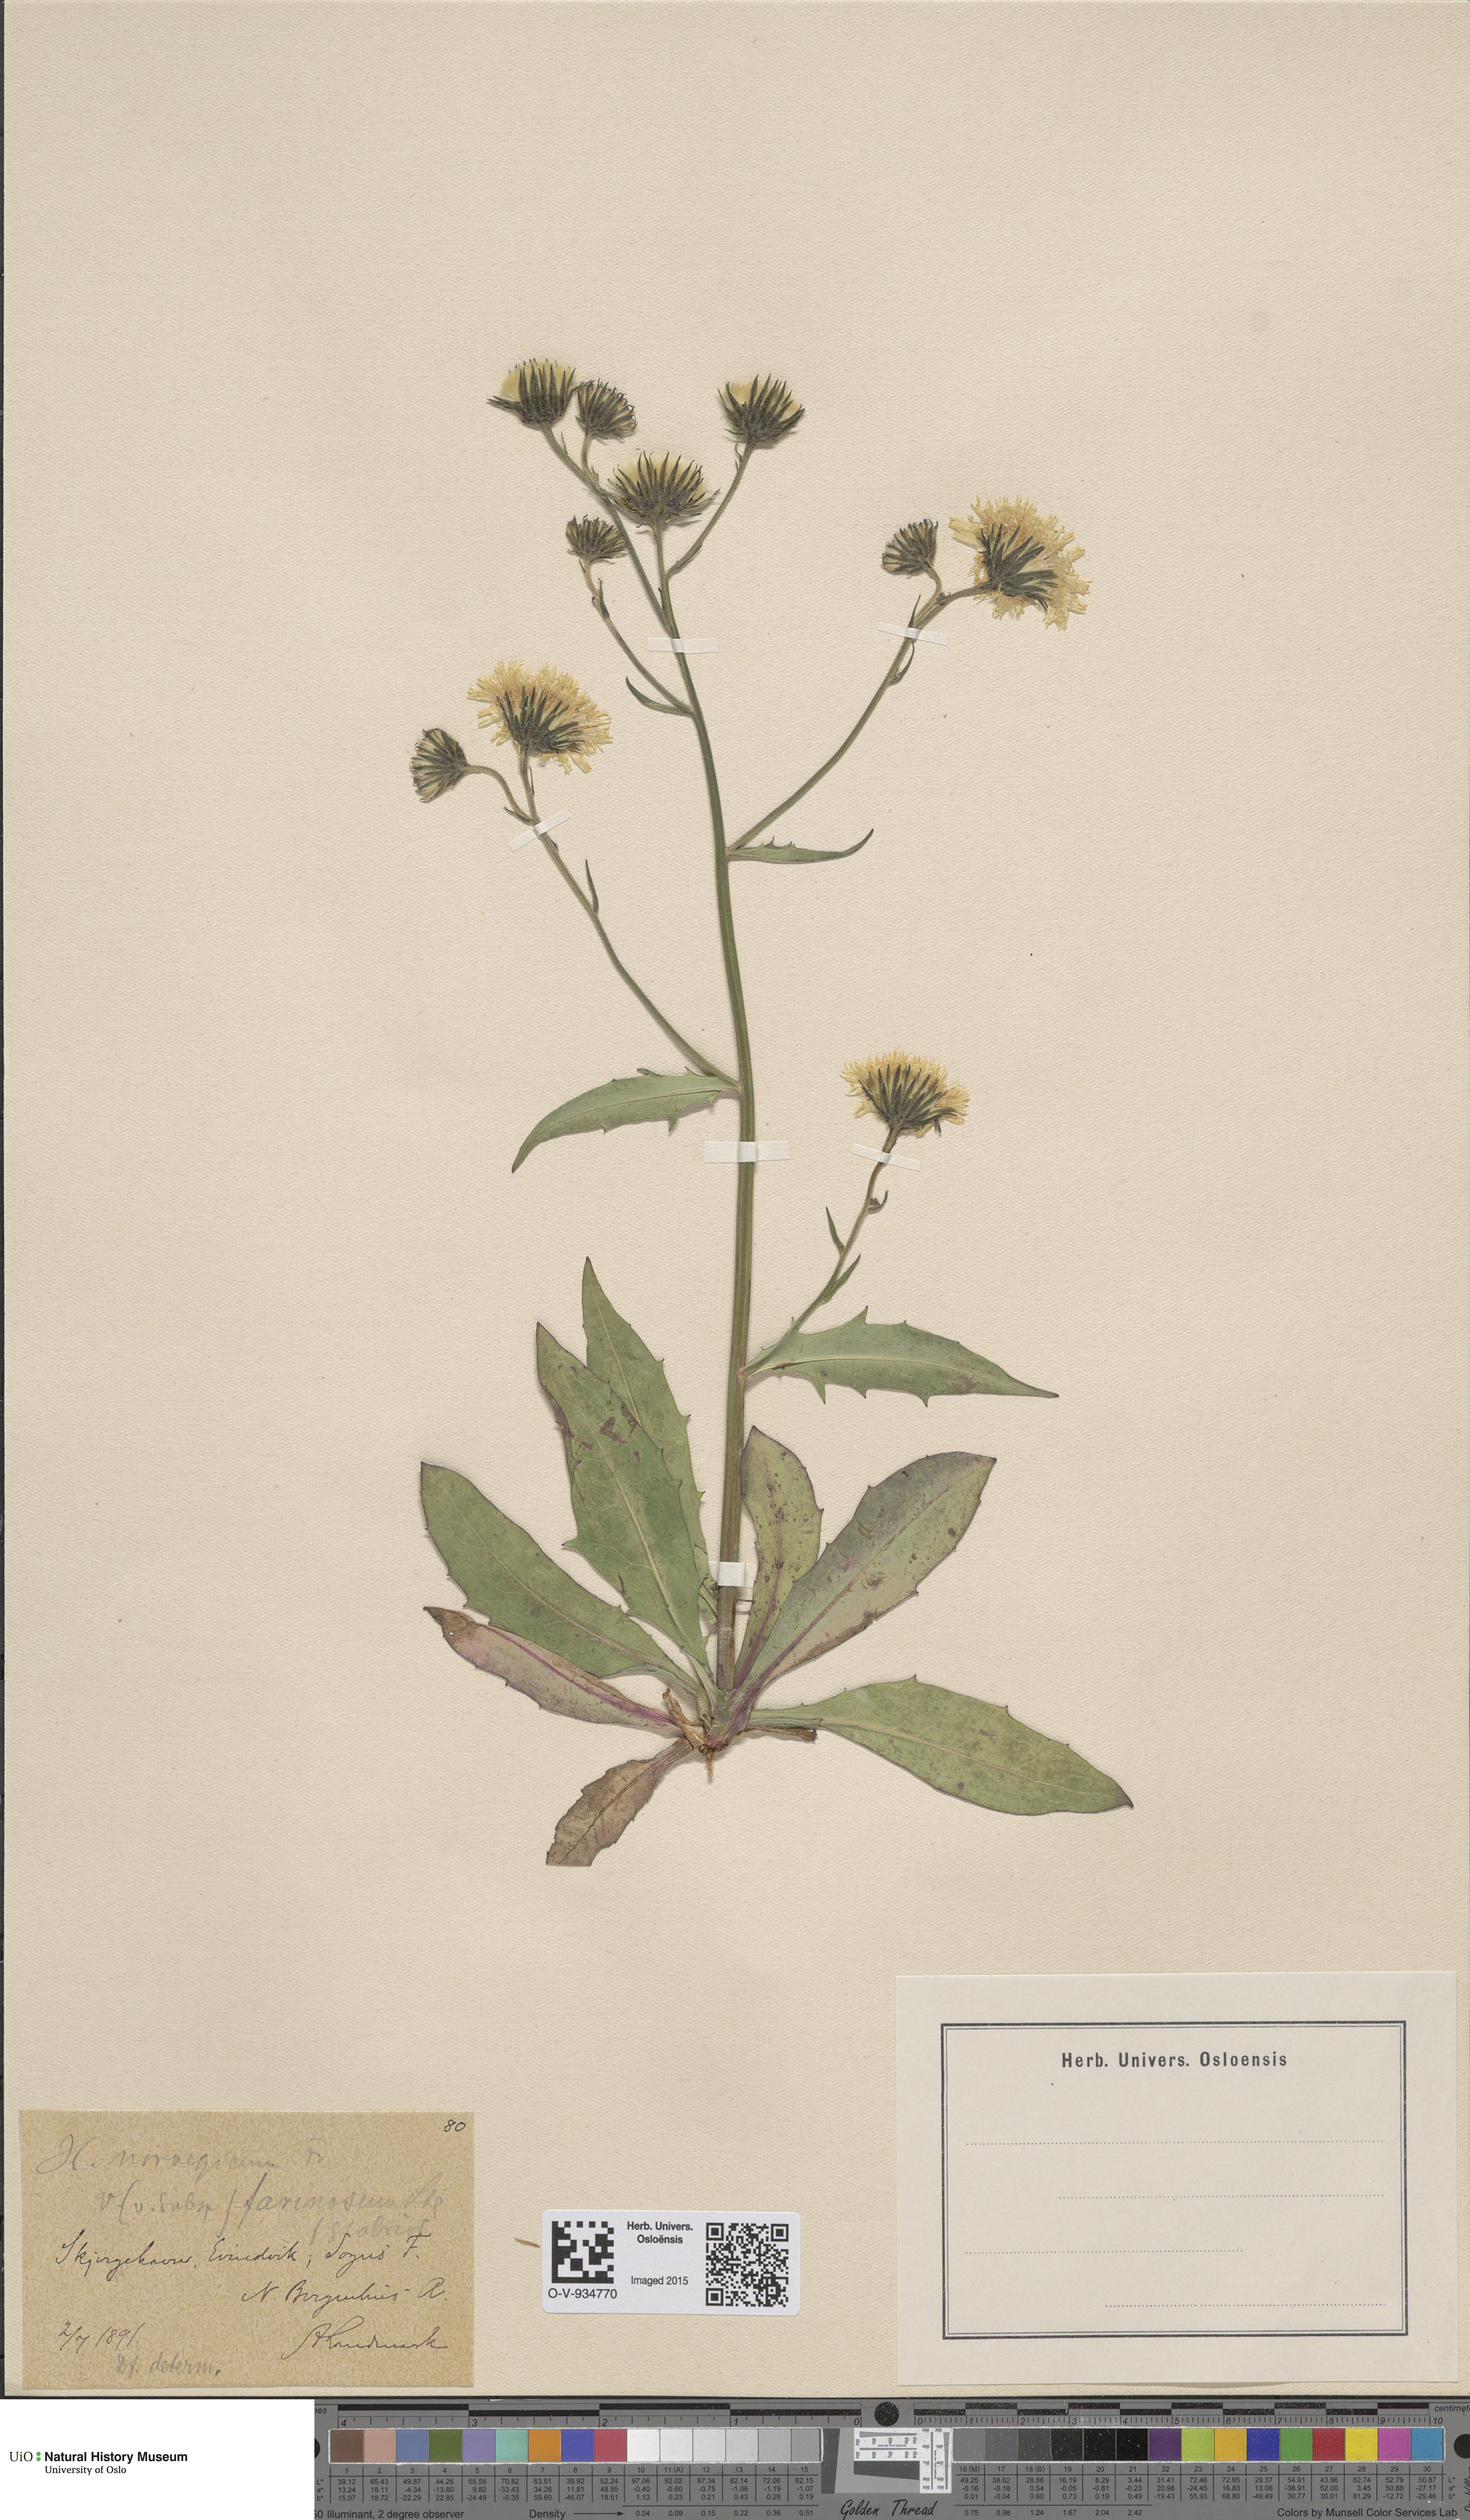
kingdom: Plantae
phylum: Tracheophyta
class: Magnoliopsida
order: Asterales
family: Asteraceae
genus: Hieracium
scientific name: Hieracium subfarinaceum
